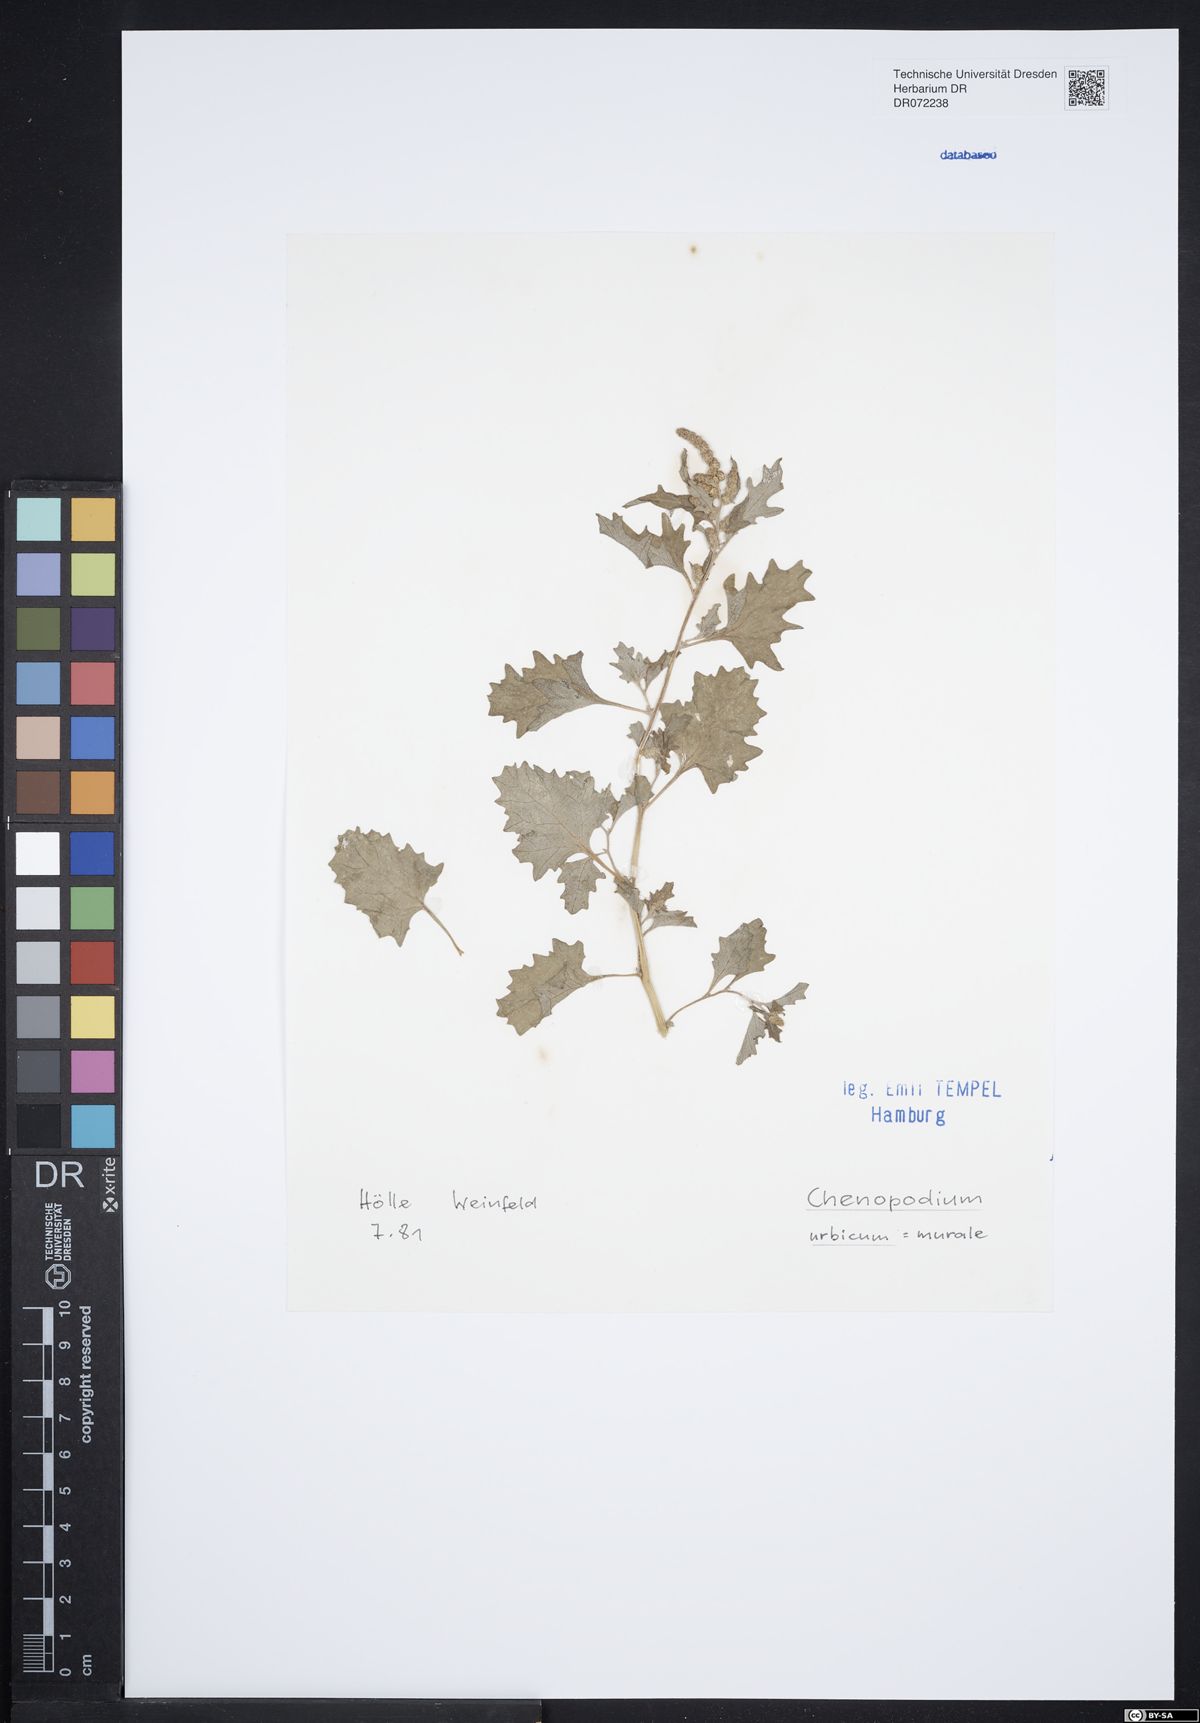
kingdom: Plantae
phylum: Tracheophyta
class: Magnoliopsida
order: Caryophyllales
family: Amaranthaceae
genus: Oxybasis
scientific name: Oxybasis urbica
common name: City goosefoot
